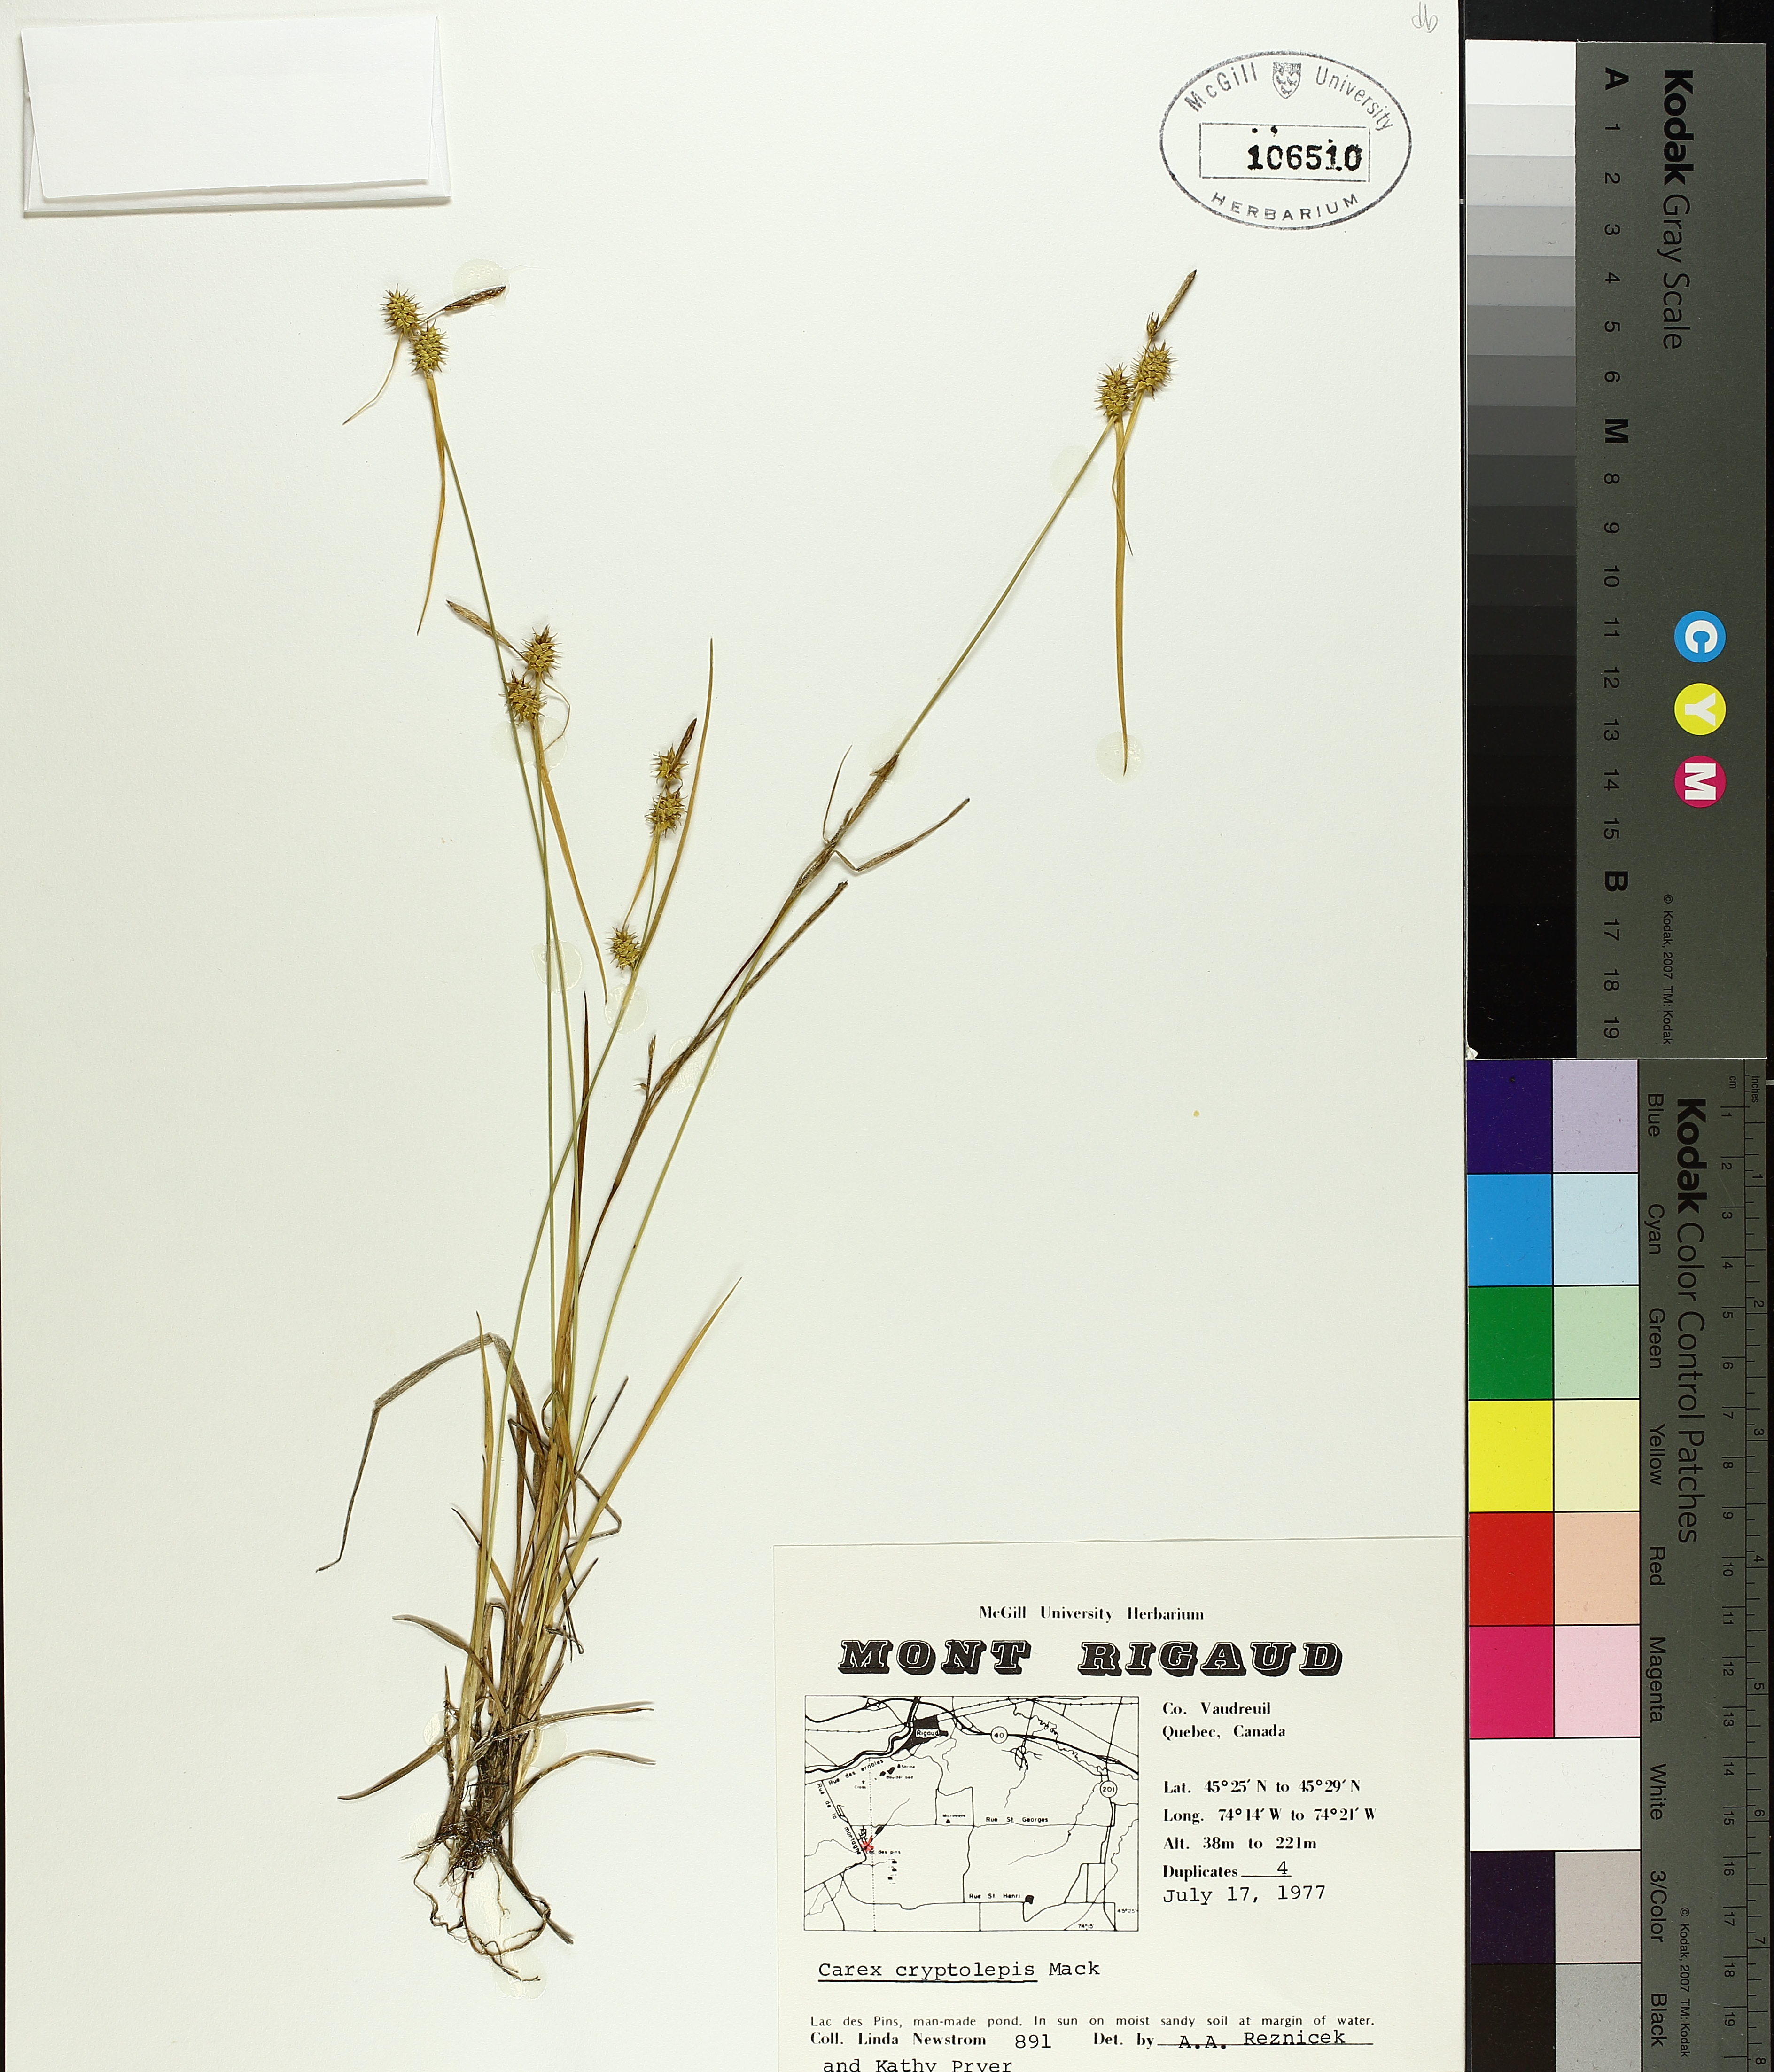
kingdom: Plantae
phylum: Tracheophyta
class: Liliopsida
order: Poales
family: Cyperaceae
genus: Carex
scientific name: Carex cryptolepis
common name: Northeastern sedge
